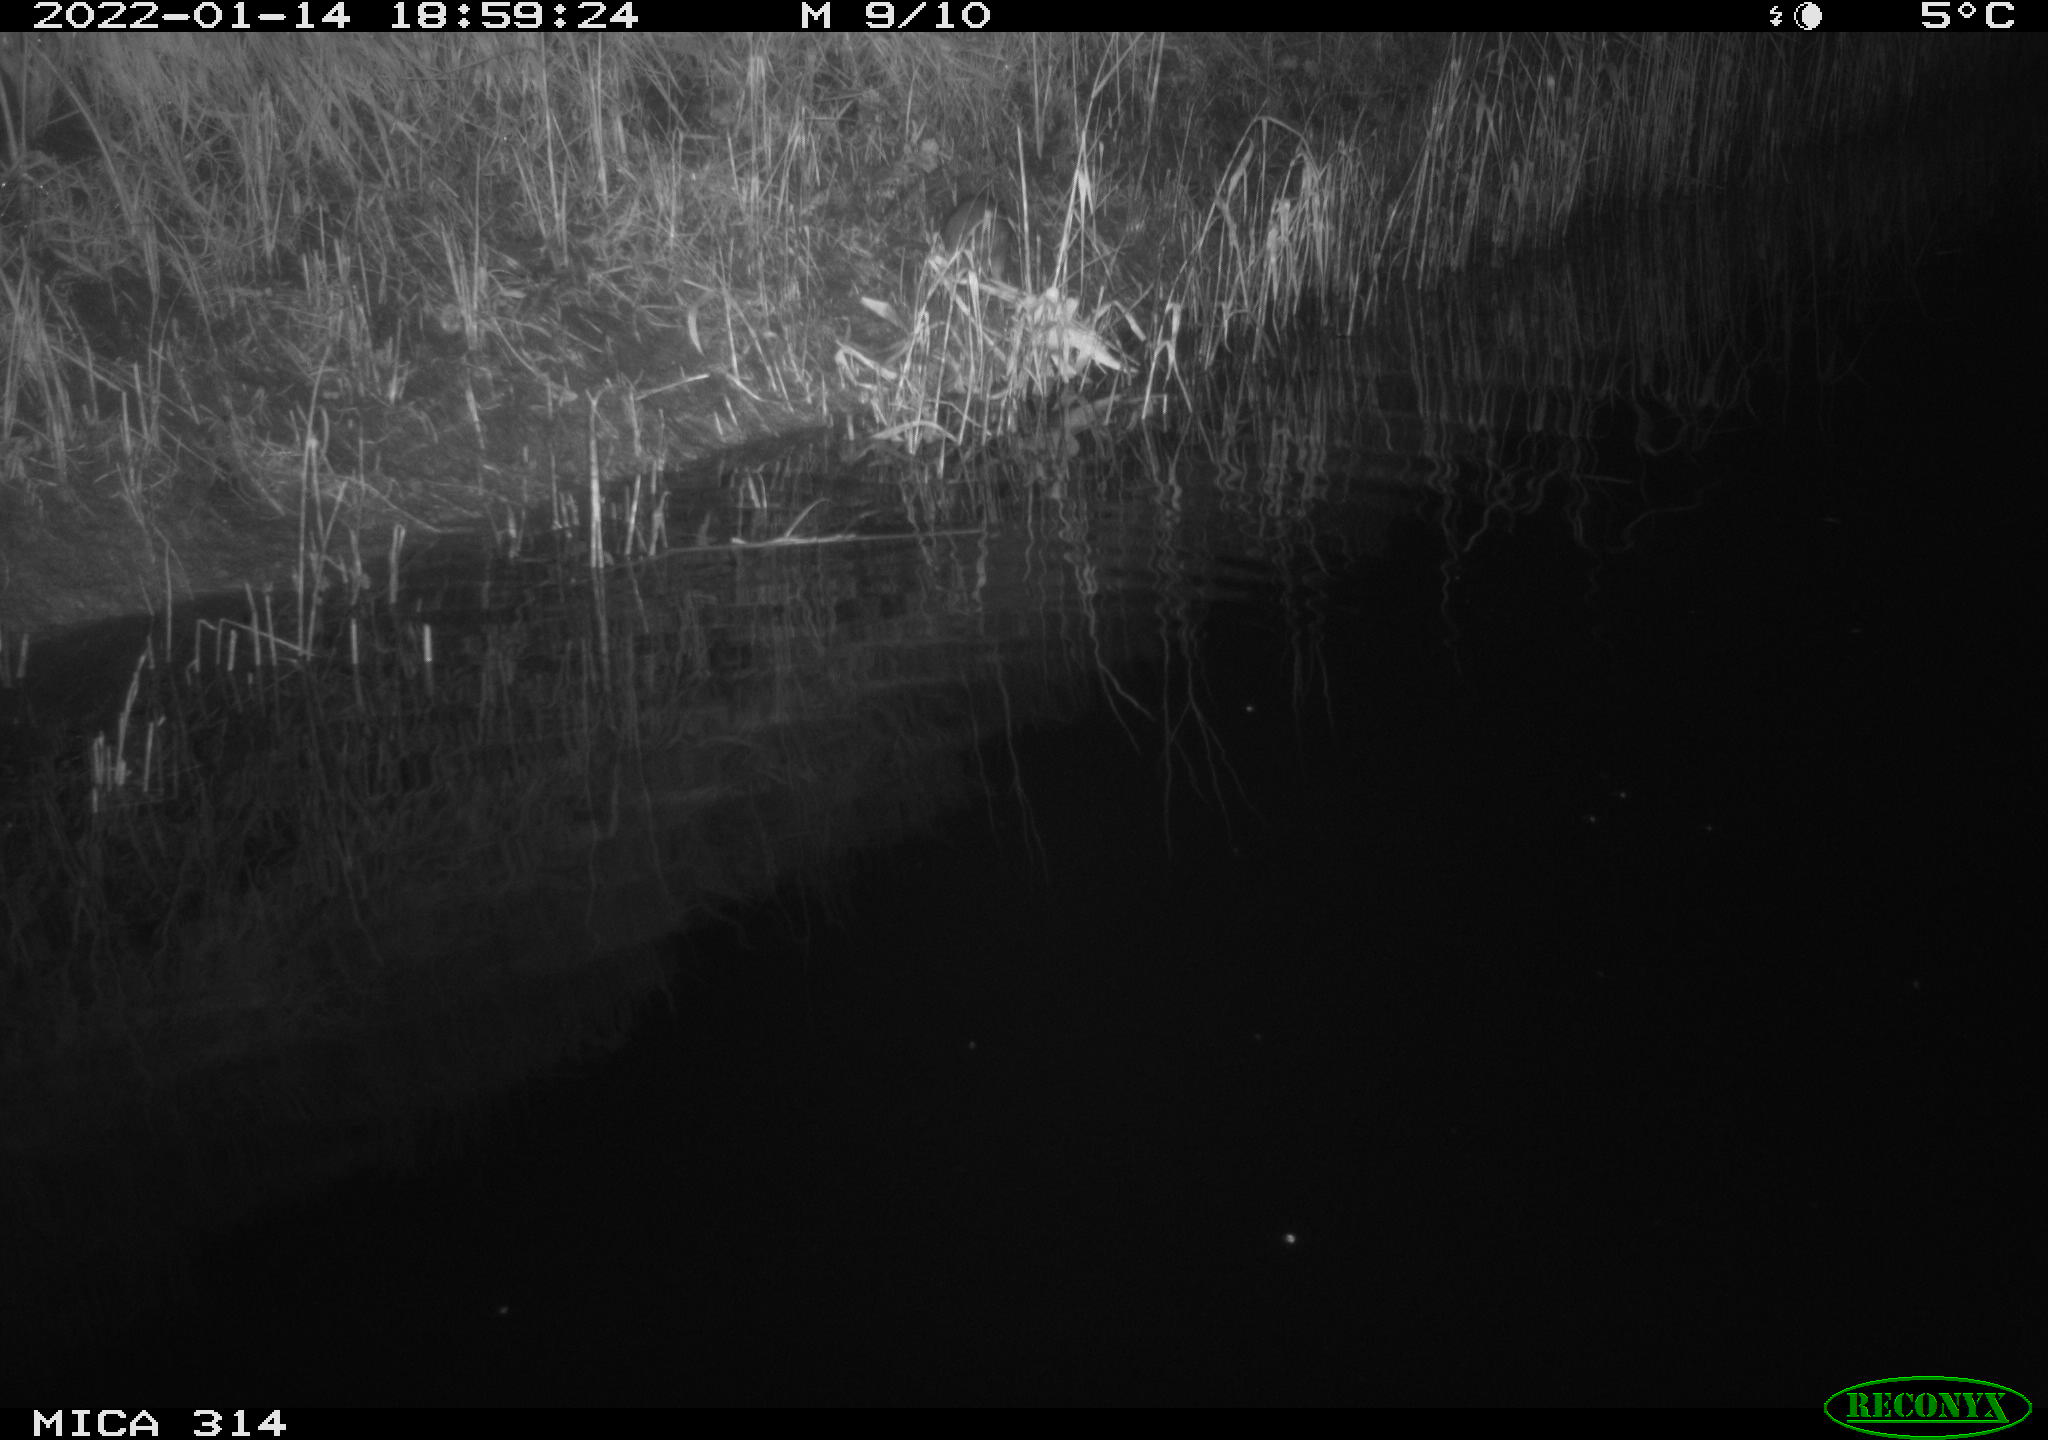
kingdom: Animalia
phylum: Chordata
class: Mammalia
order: Rodentia
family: Muridae
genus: Rattus
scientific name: Rattus norvegicus
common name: Brown rat
